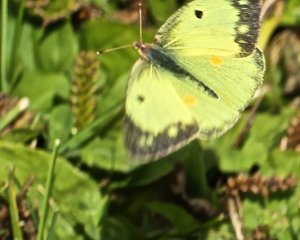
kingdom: Animalia
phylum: Arthropoda
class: Insecta
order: Lepidoptera
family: Pieridae
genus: Colias
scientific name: Colias philodice
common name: Clouded Sulphur
